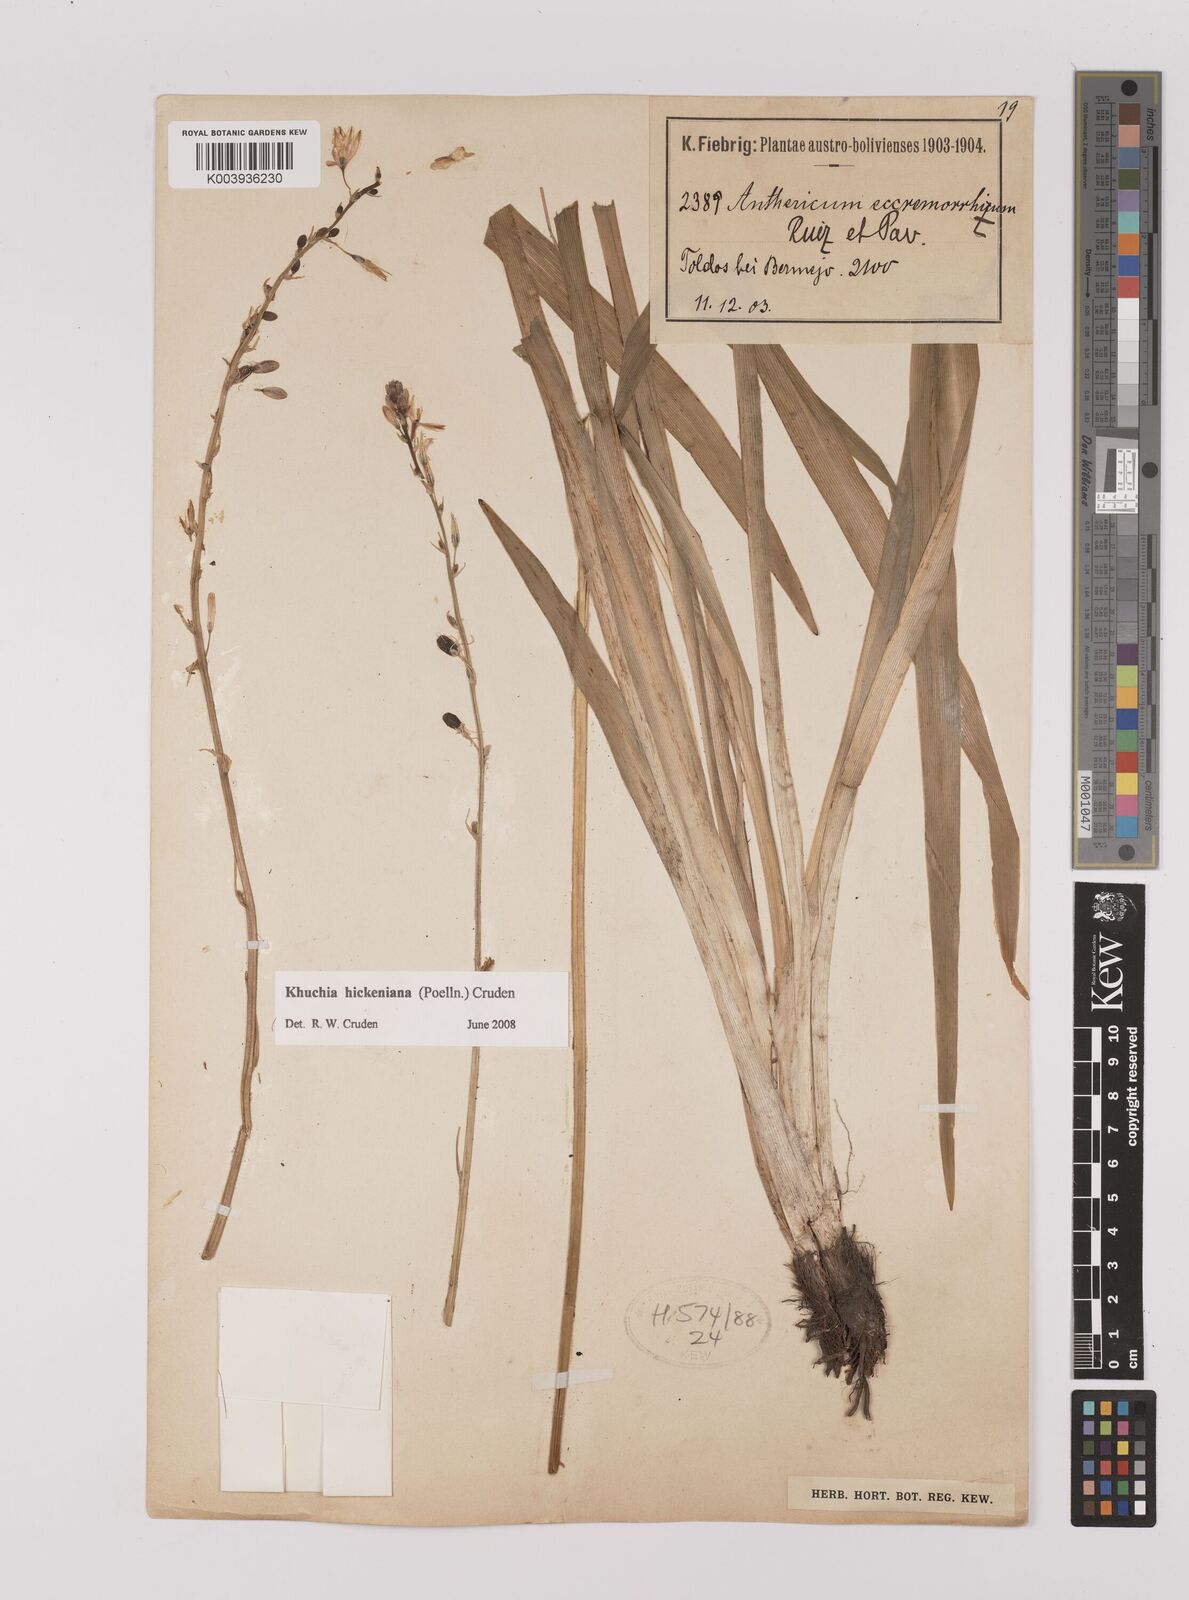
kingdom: Plantae
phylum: Tracheophyta
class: Liliopsida
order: Asparagales
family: Asparagaceae
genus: Echeandia
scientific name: Echeandia
